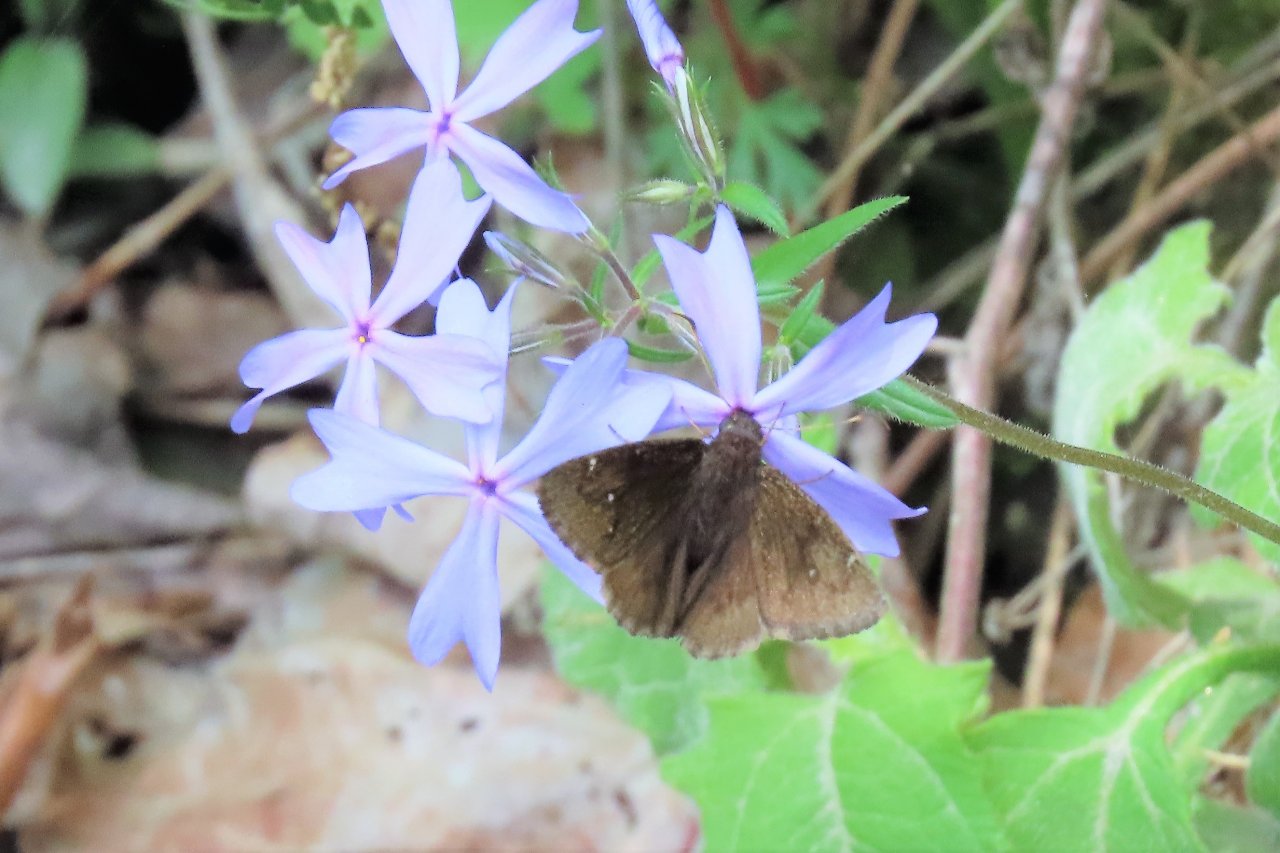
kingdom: Animalia
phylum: Arthropoda
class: Insecta
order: Lepidoptera
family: Hesperiidae
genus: Autochton
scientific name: Autochton
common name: Northern Cloudywing
